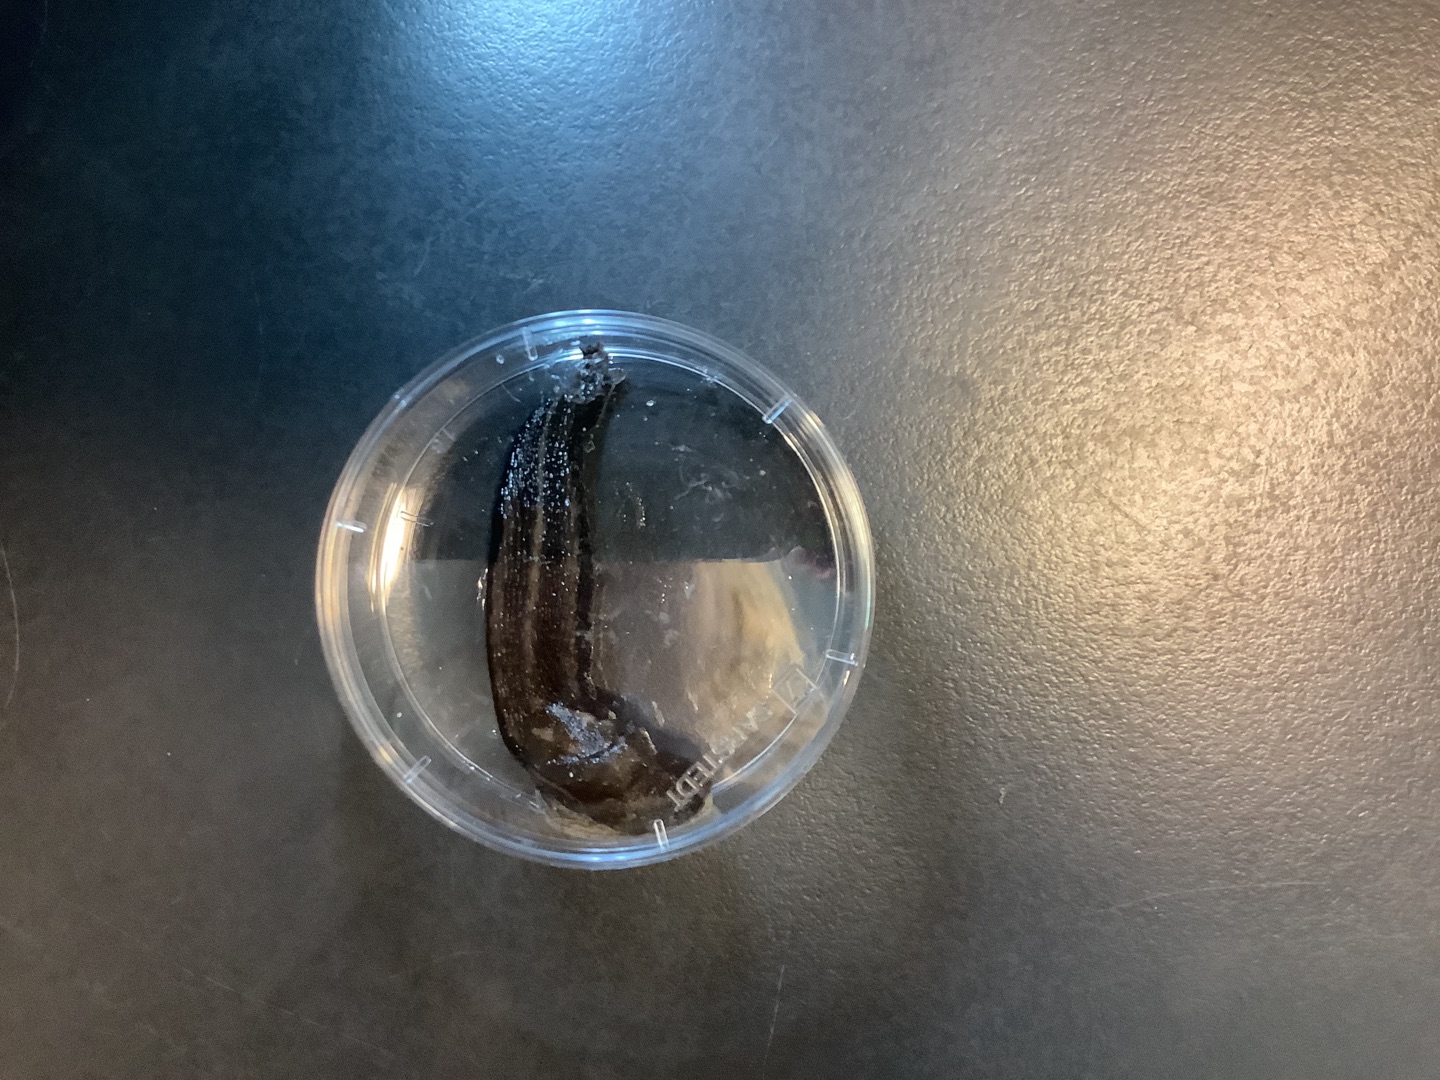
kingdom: Animalia
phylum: Mollusca
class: Gastropoda
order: Stylommatophora
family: Limacidae
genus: Limax
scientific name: Limax
